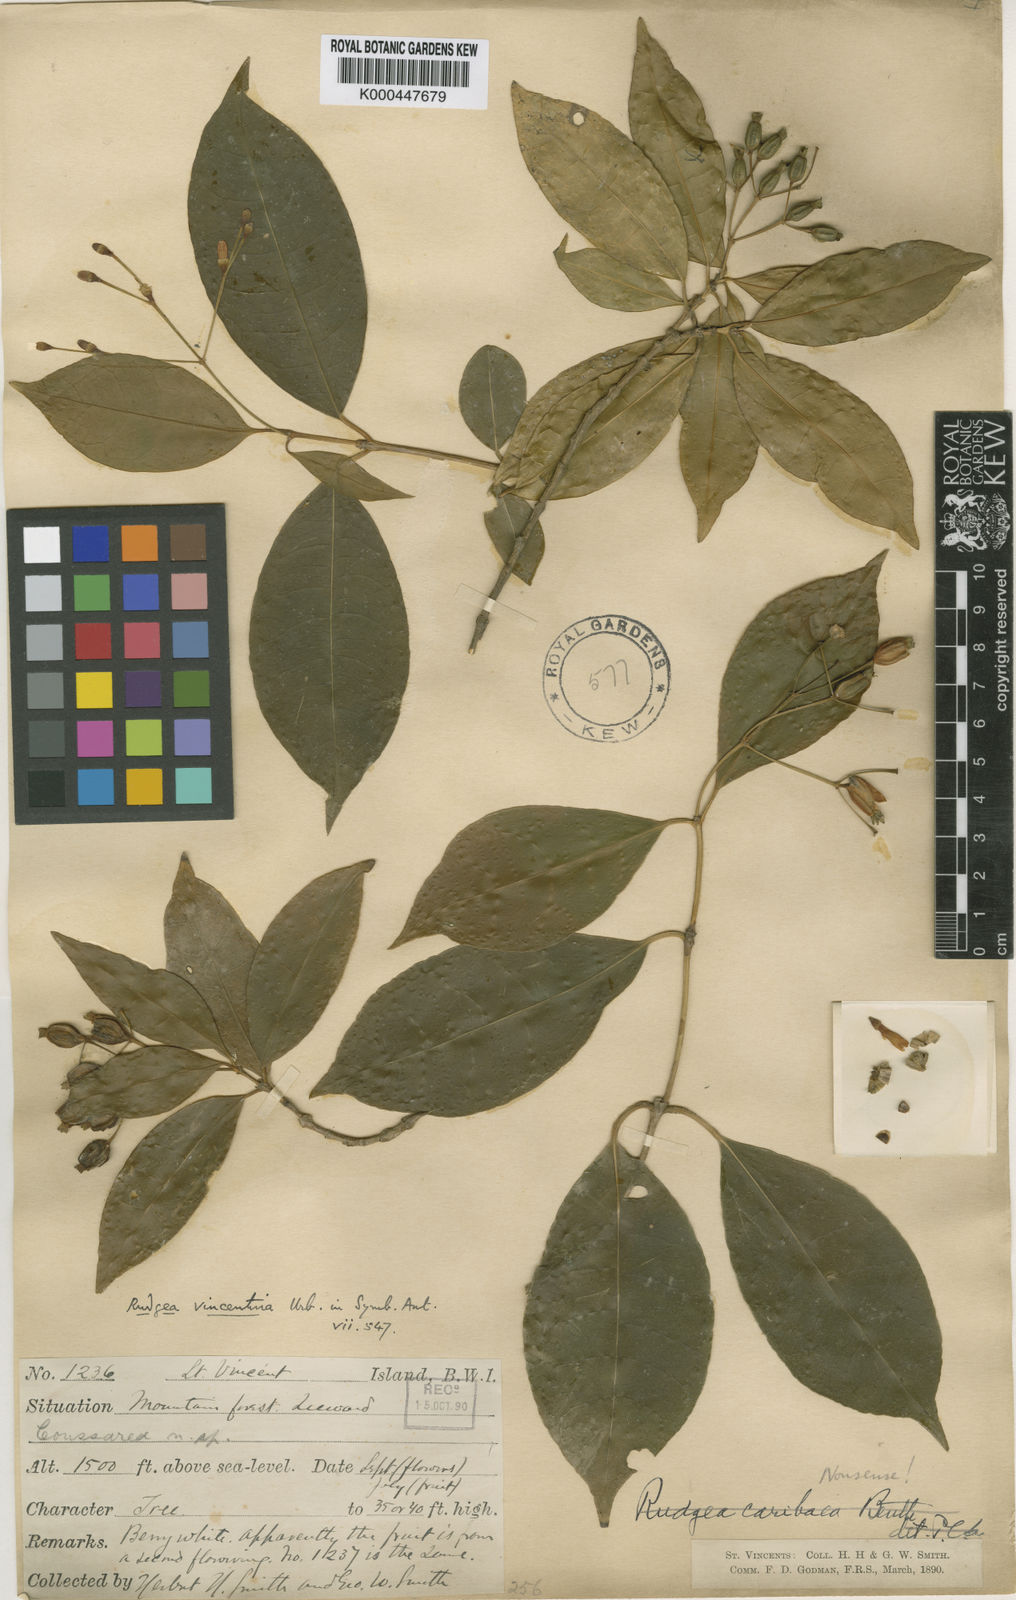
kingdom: Plantae
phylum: Tracheophyta
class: Magnoliopsida
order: Gentianales
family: Rubiaceae
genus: Rudgea
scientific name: Rudgea vincentina
